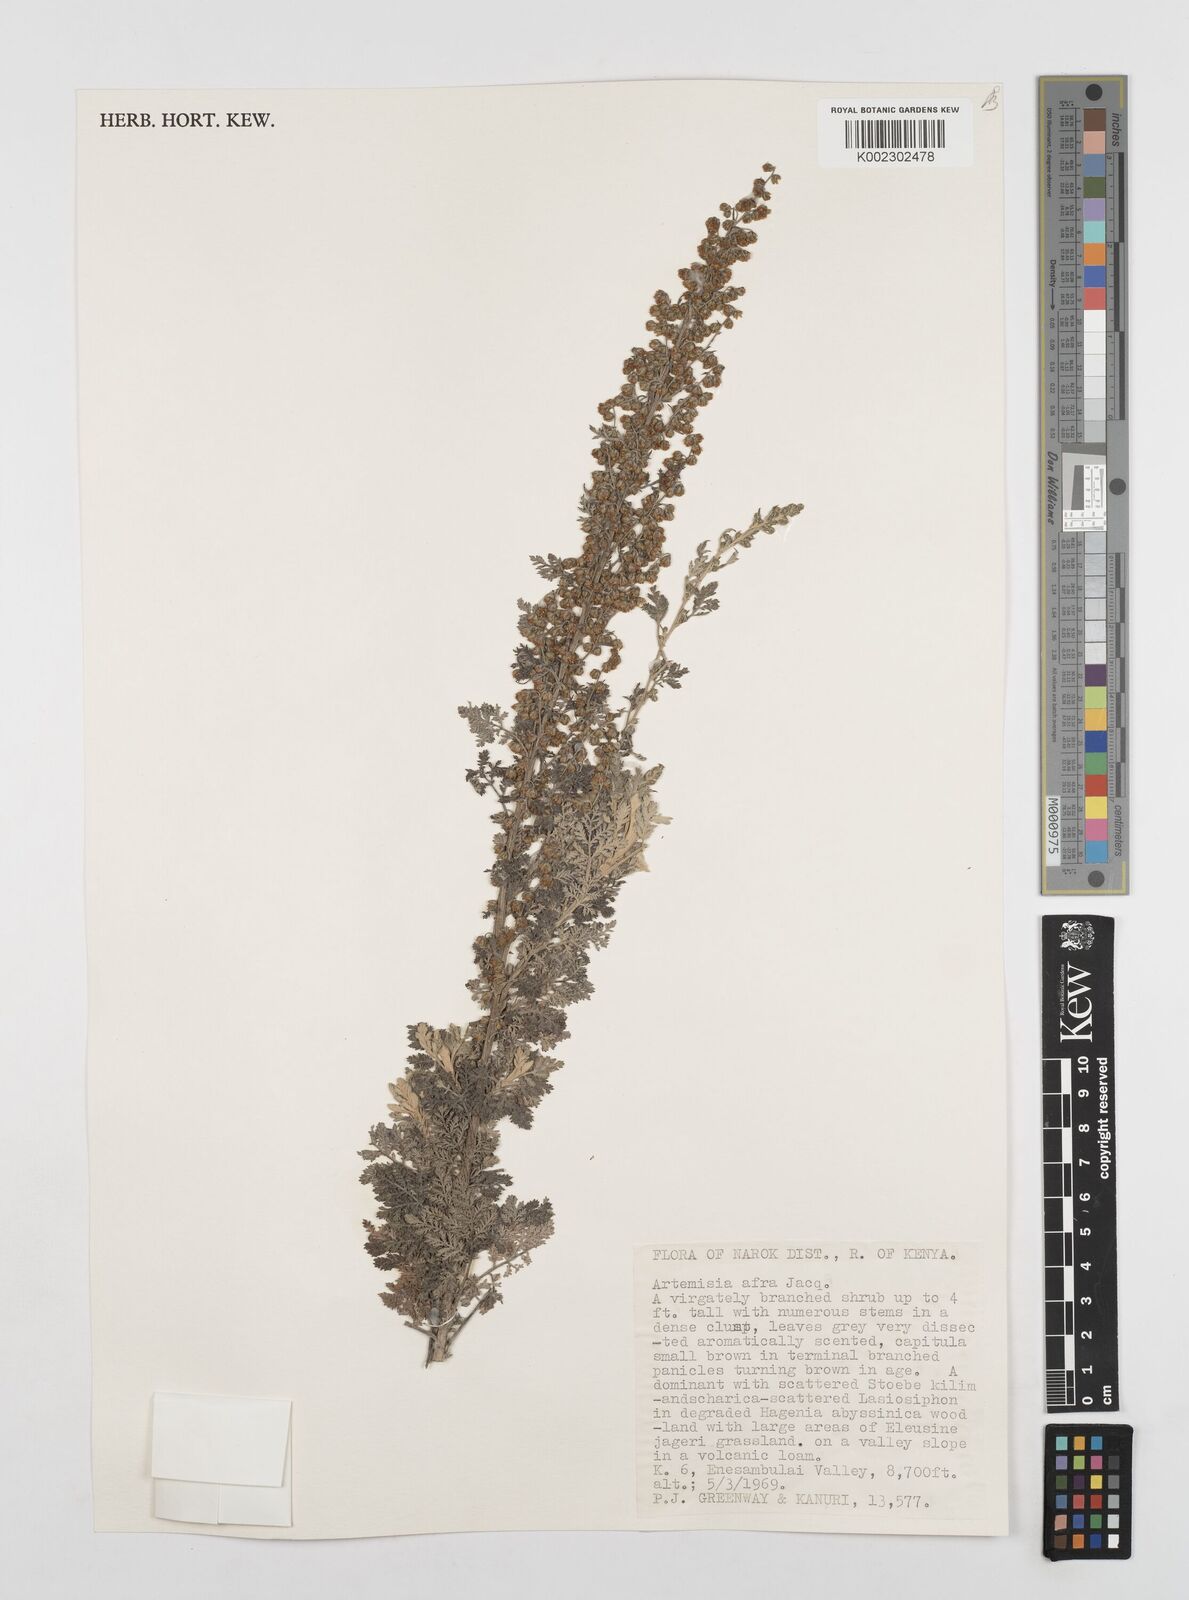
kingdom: Plantae
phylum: Tracheophyta
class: Magnoliopsida
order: Asterales
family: Asteraceae
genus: Artemisia
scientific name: Artemisia afra
